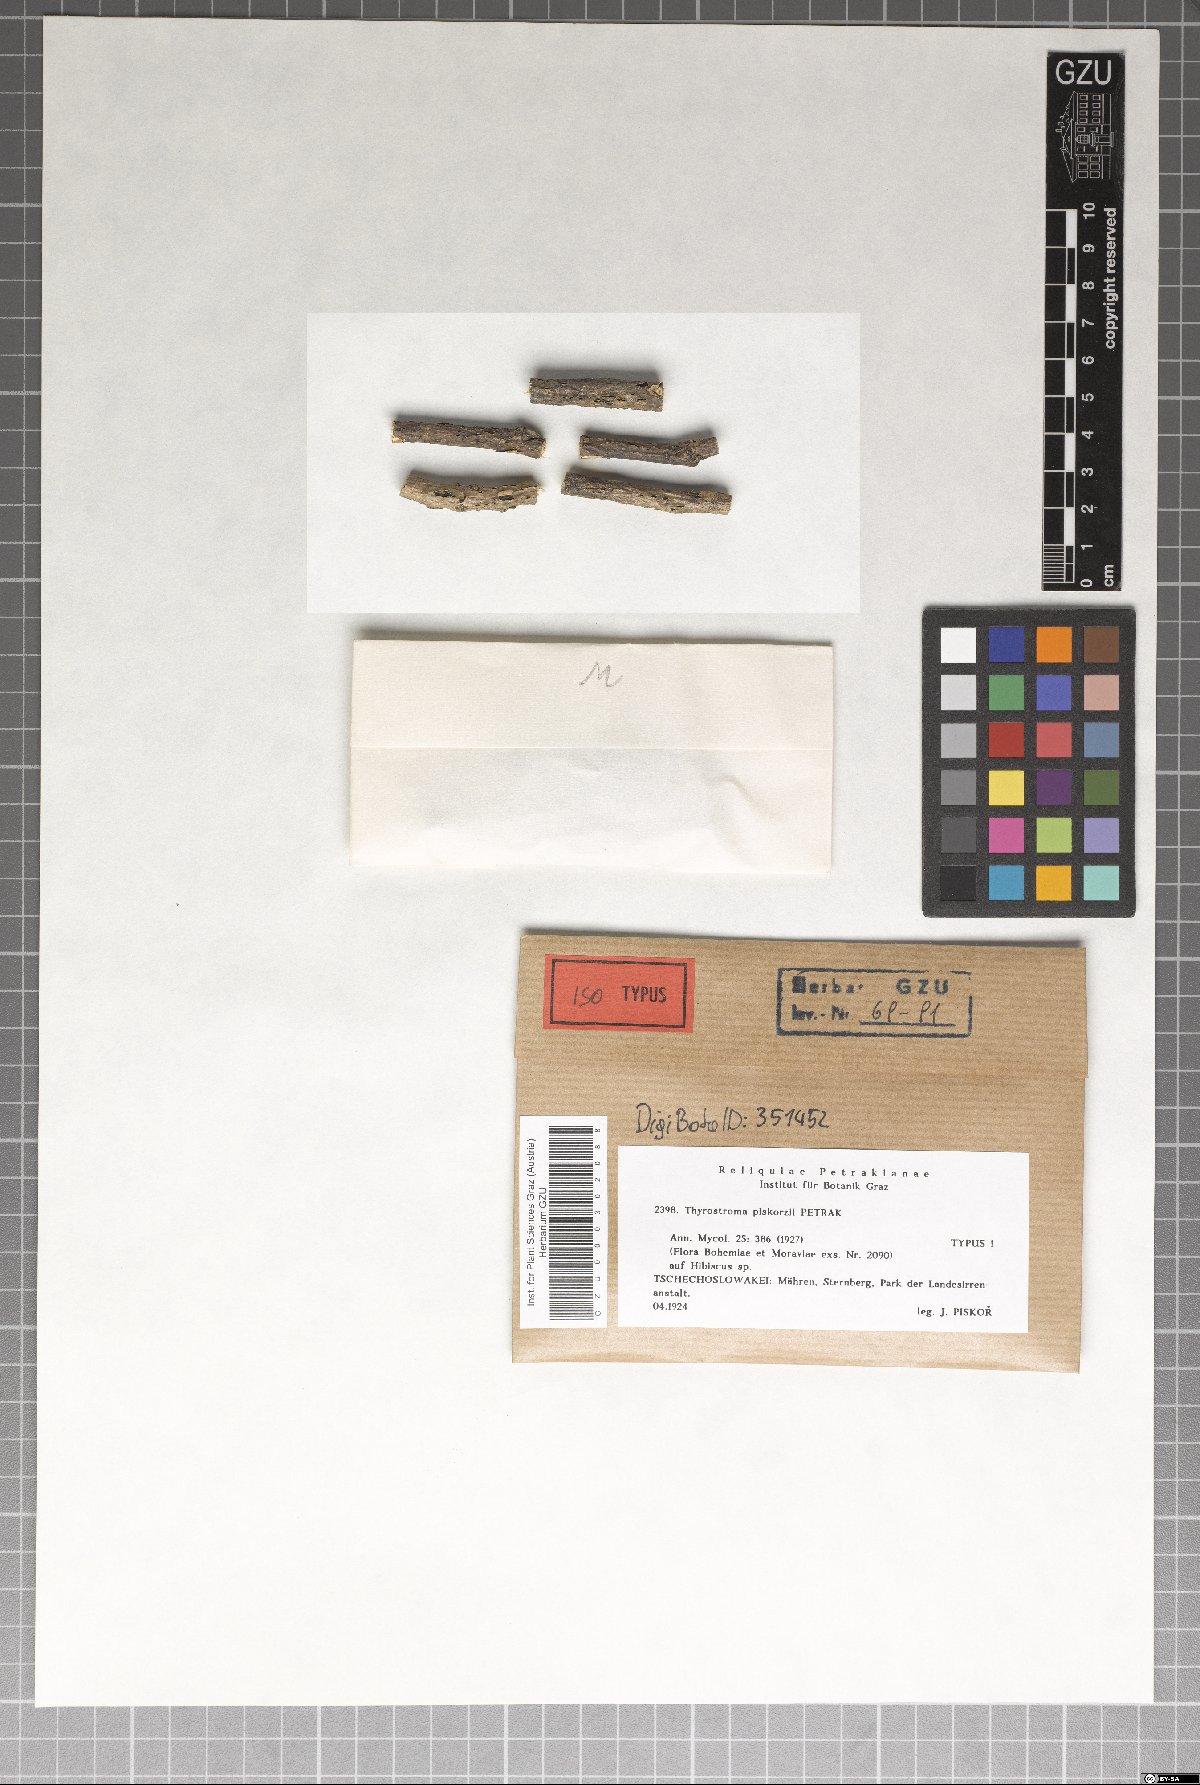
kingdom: Fungi
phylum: Ascomycota
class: Dothideomycetes
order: Botryosphaeriales
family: Botryosphaeriaceae
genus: Thyrostroma
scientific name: Thyrostroma piskorzii
